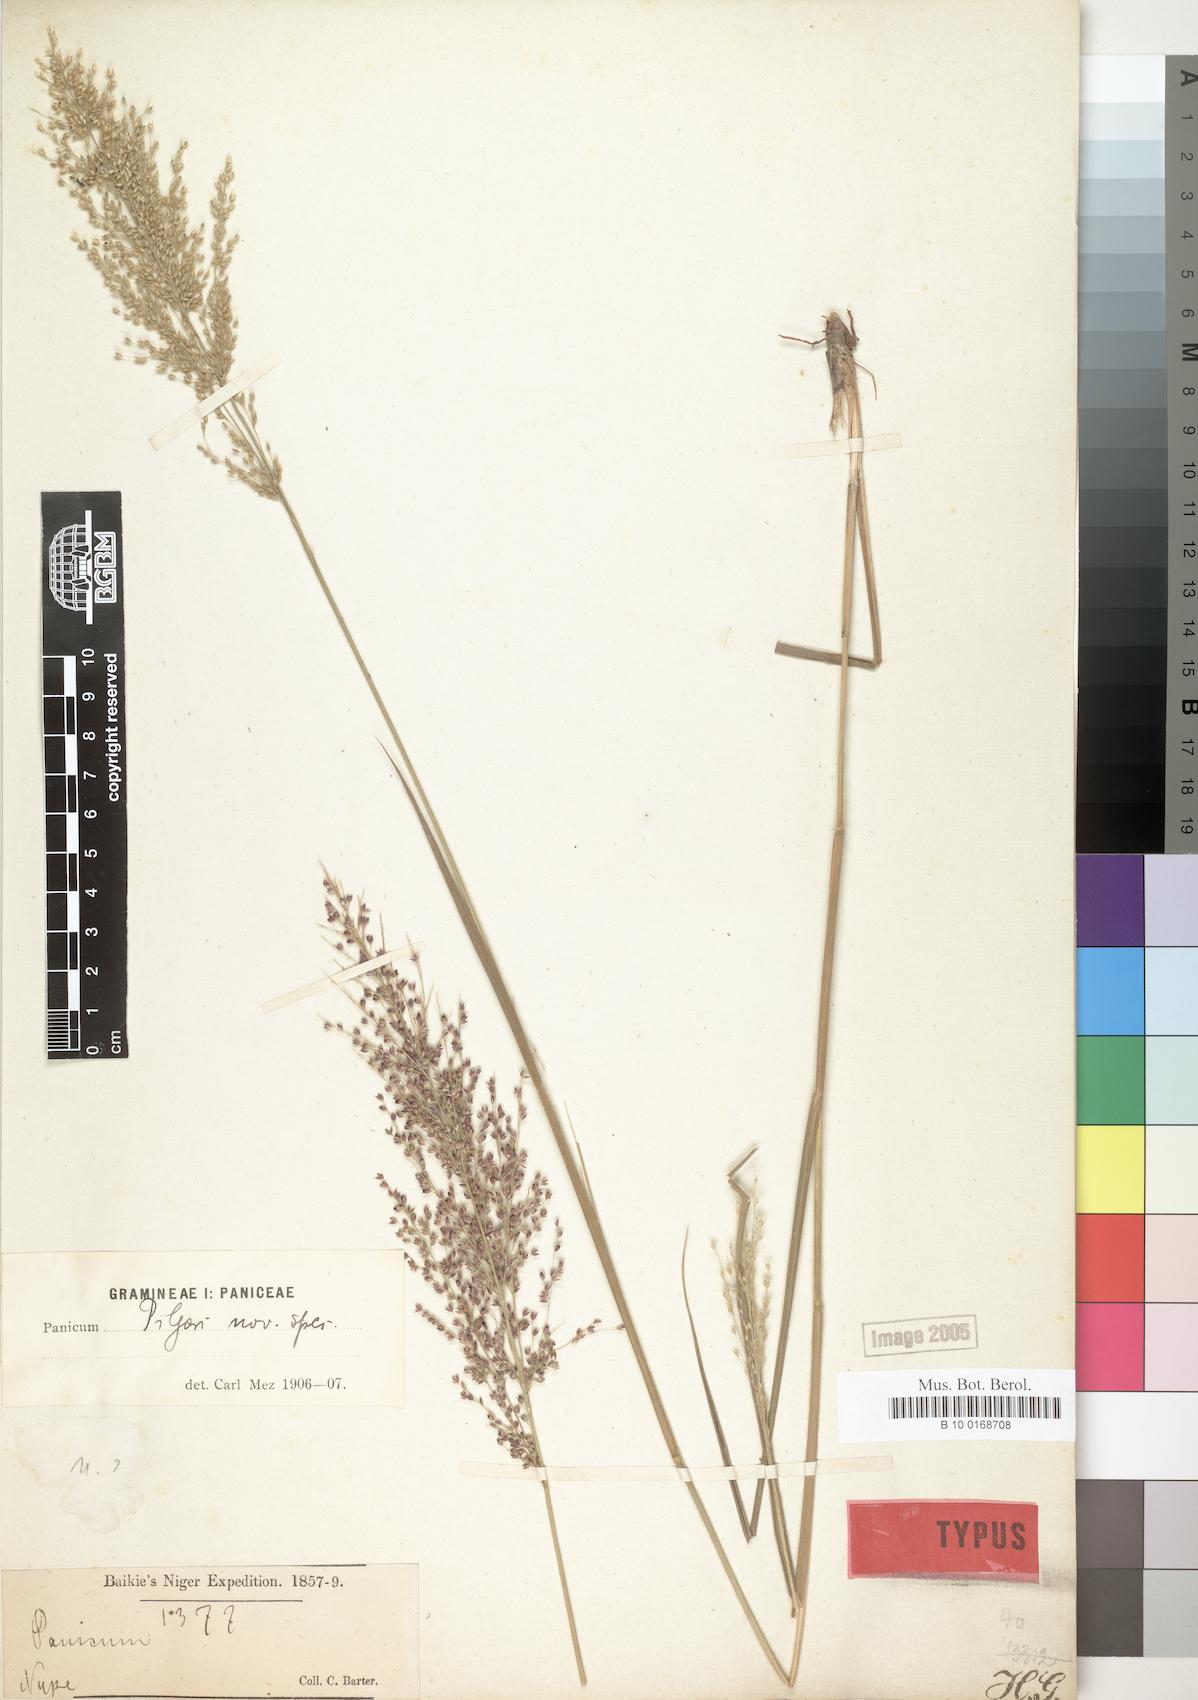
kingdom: Plantae
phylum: Tracheophyta
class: Liliopsida
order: Poales
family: Poaceae
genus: Panicum
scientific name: Panicum pilgeri
